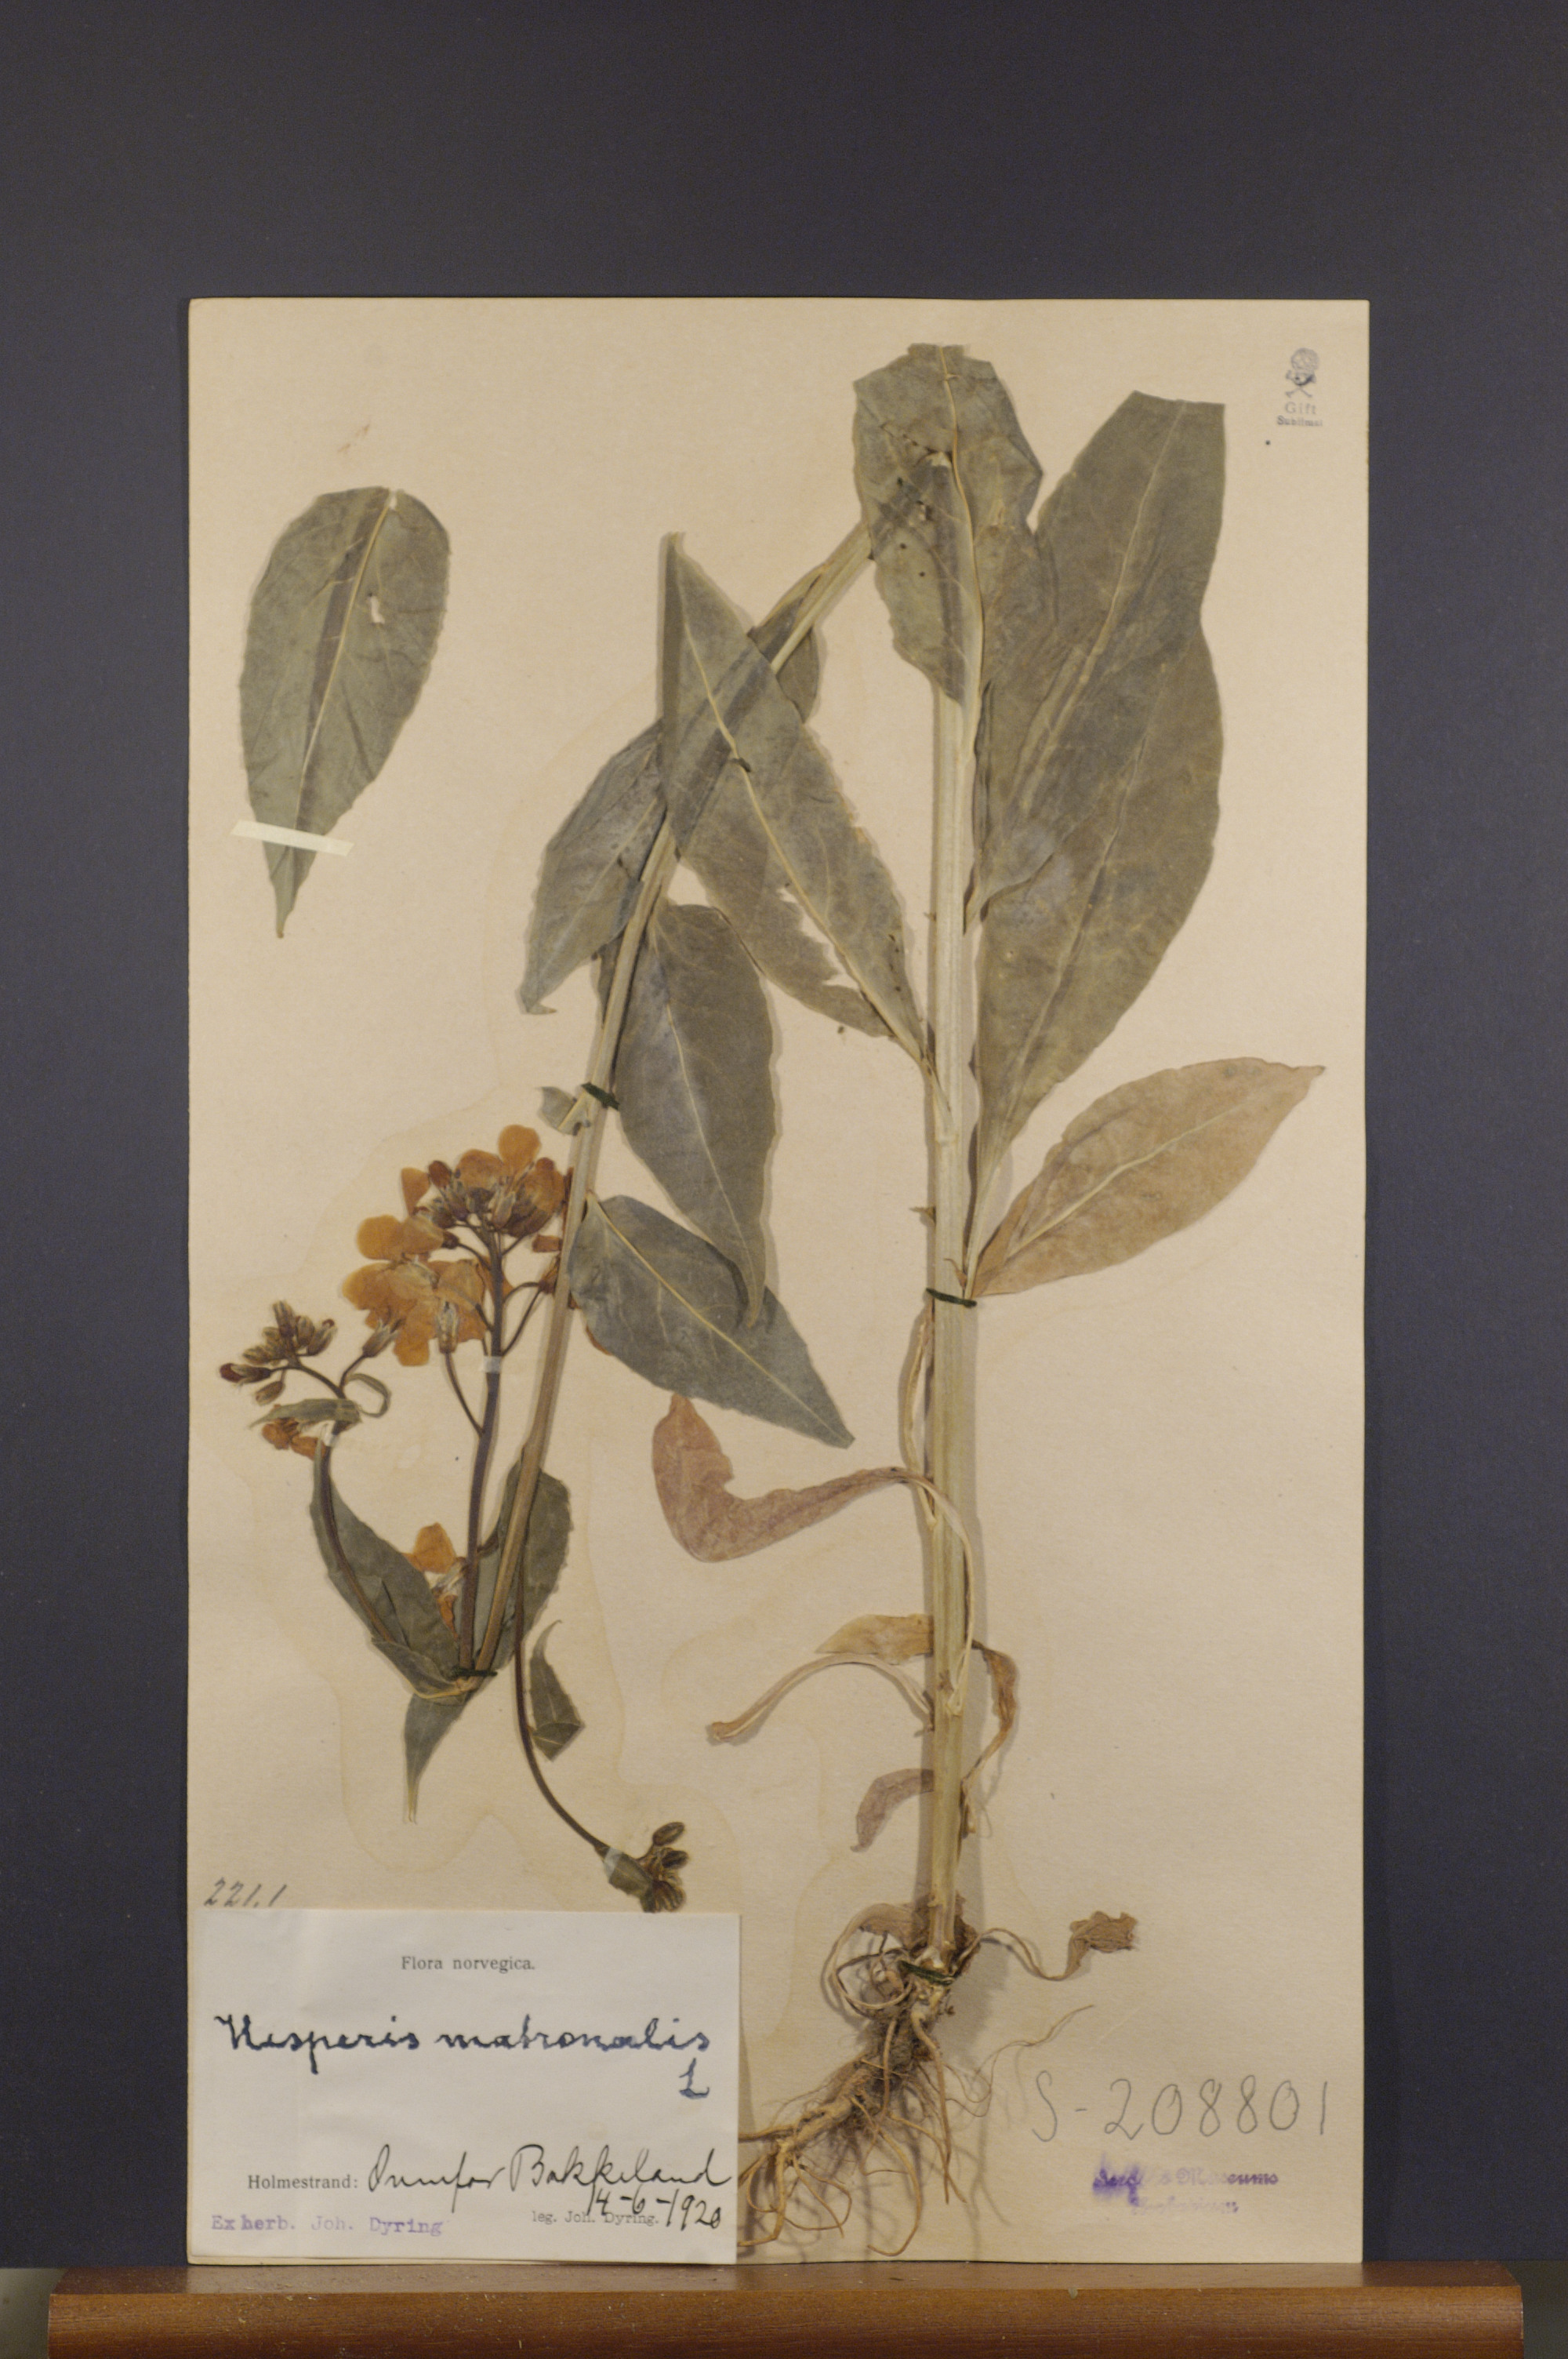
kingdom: Plantae
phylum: Tracheophyta
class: Magnoliopsida
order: Brassicales
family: Brassicaceae
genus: Hesperis
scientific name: Hesperis matronalis
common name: Dame's-violet
